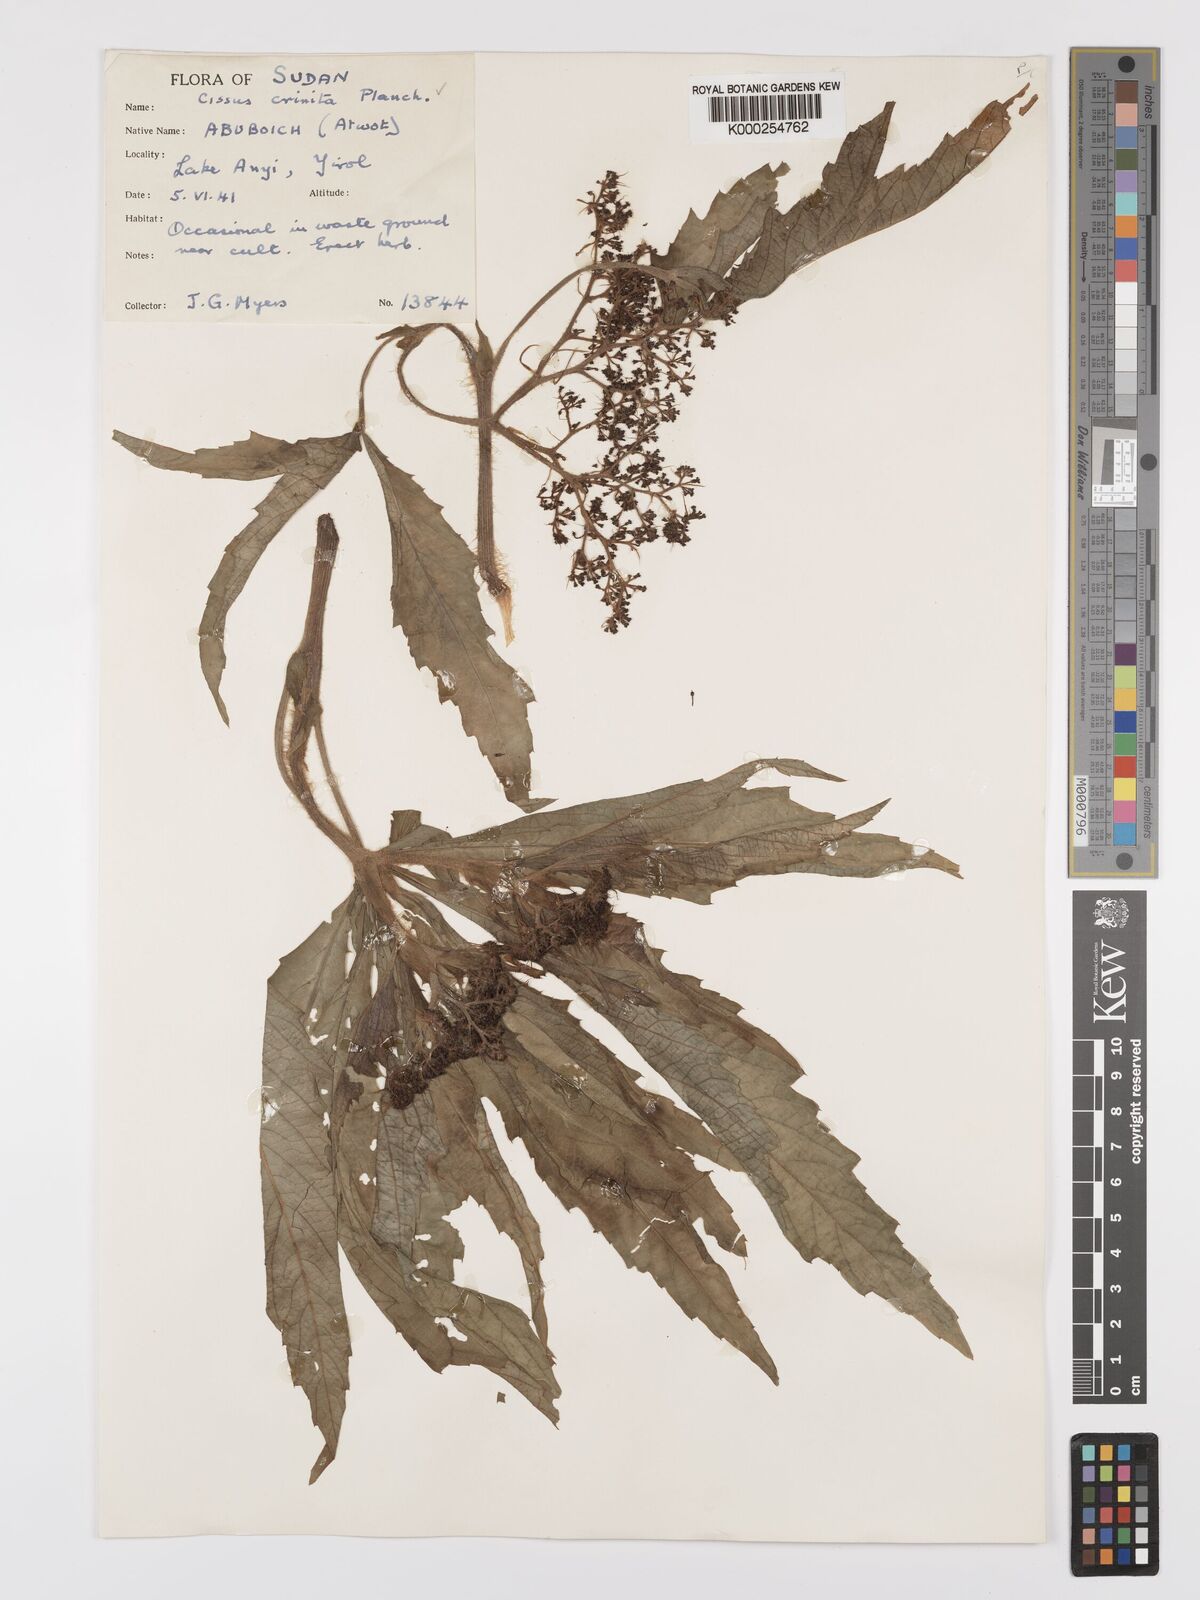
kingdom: Plantae
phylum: Tracheophyta
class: Magnoliopsida
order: Vitales
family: Vitaceae
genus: Cyphostemma
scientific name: Cyphostemma crinitum
